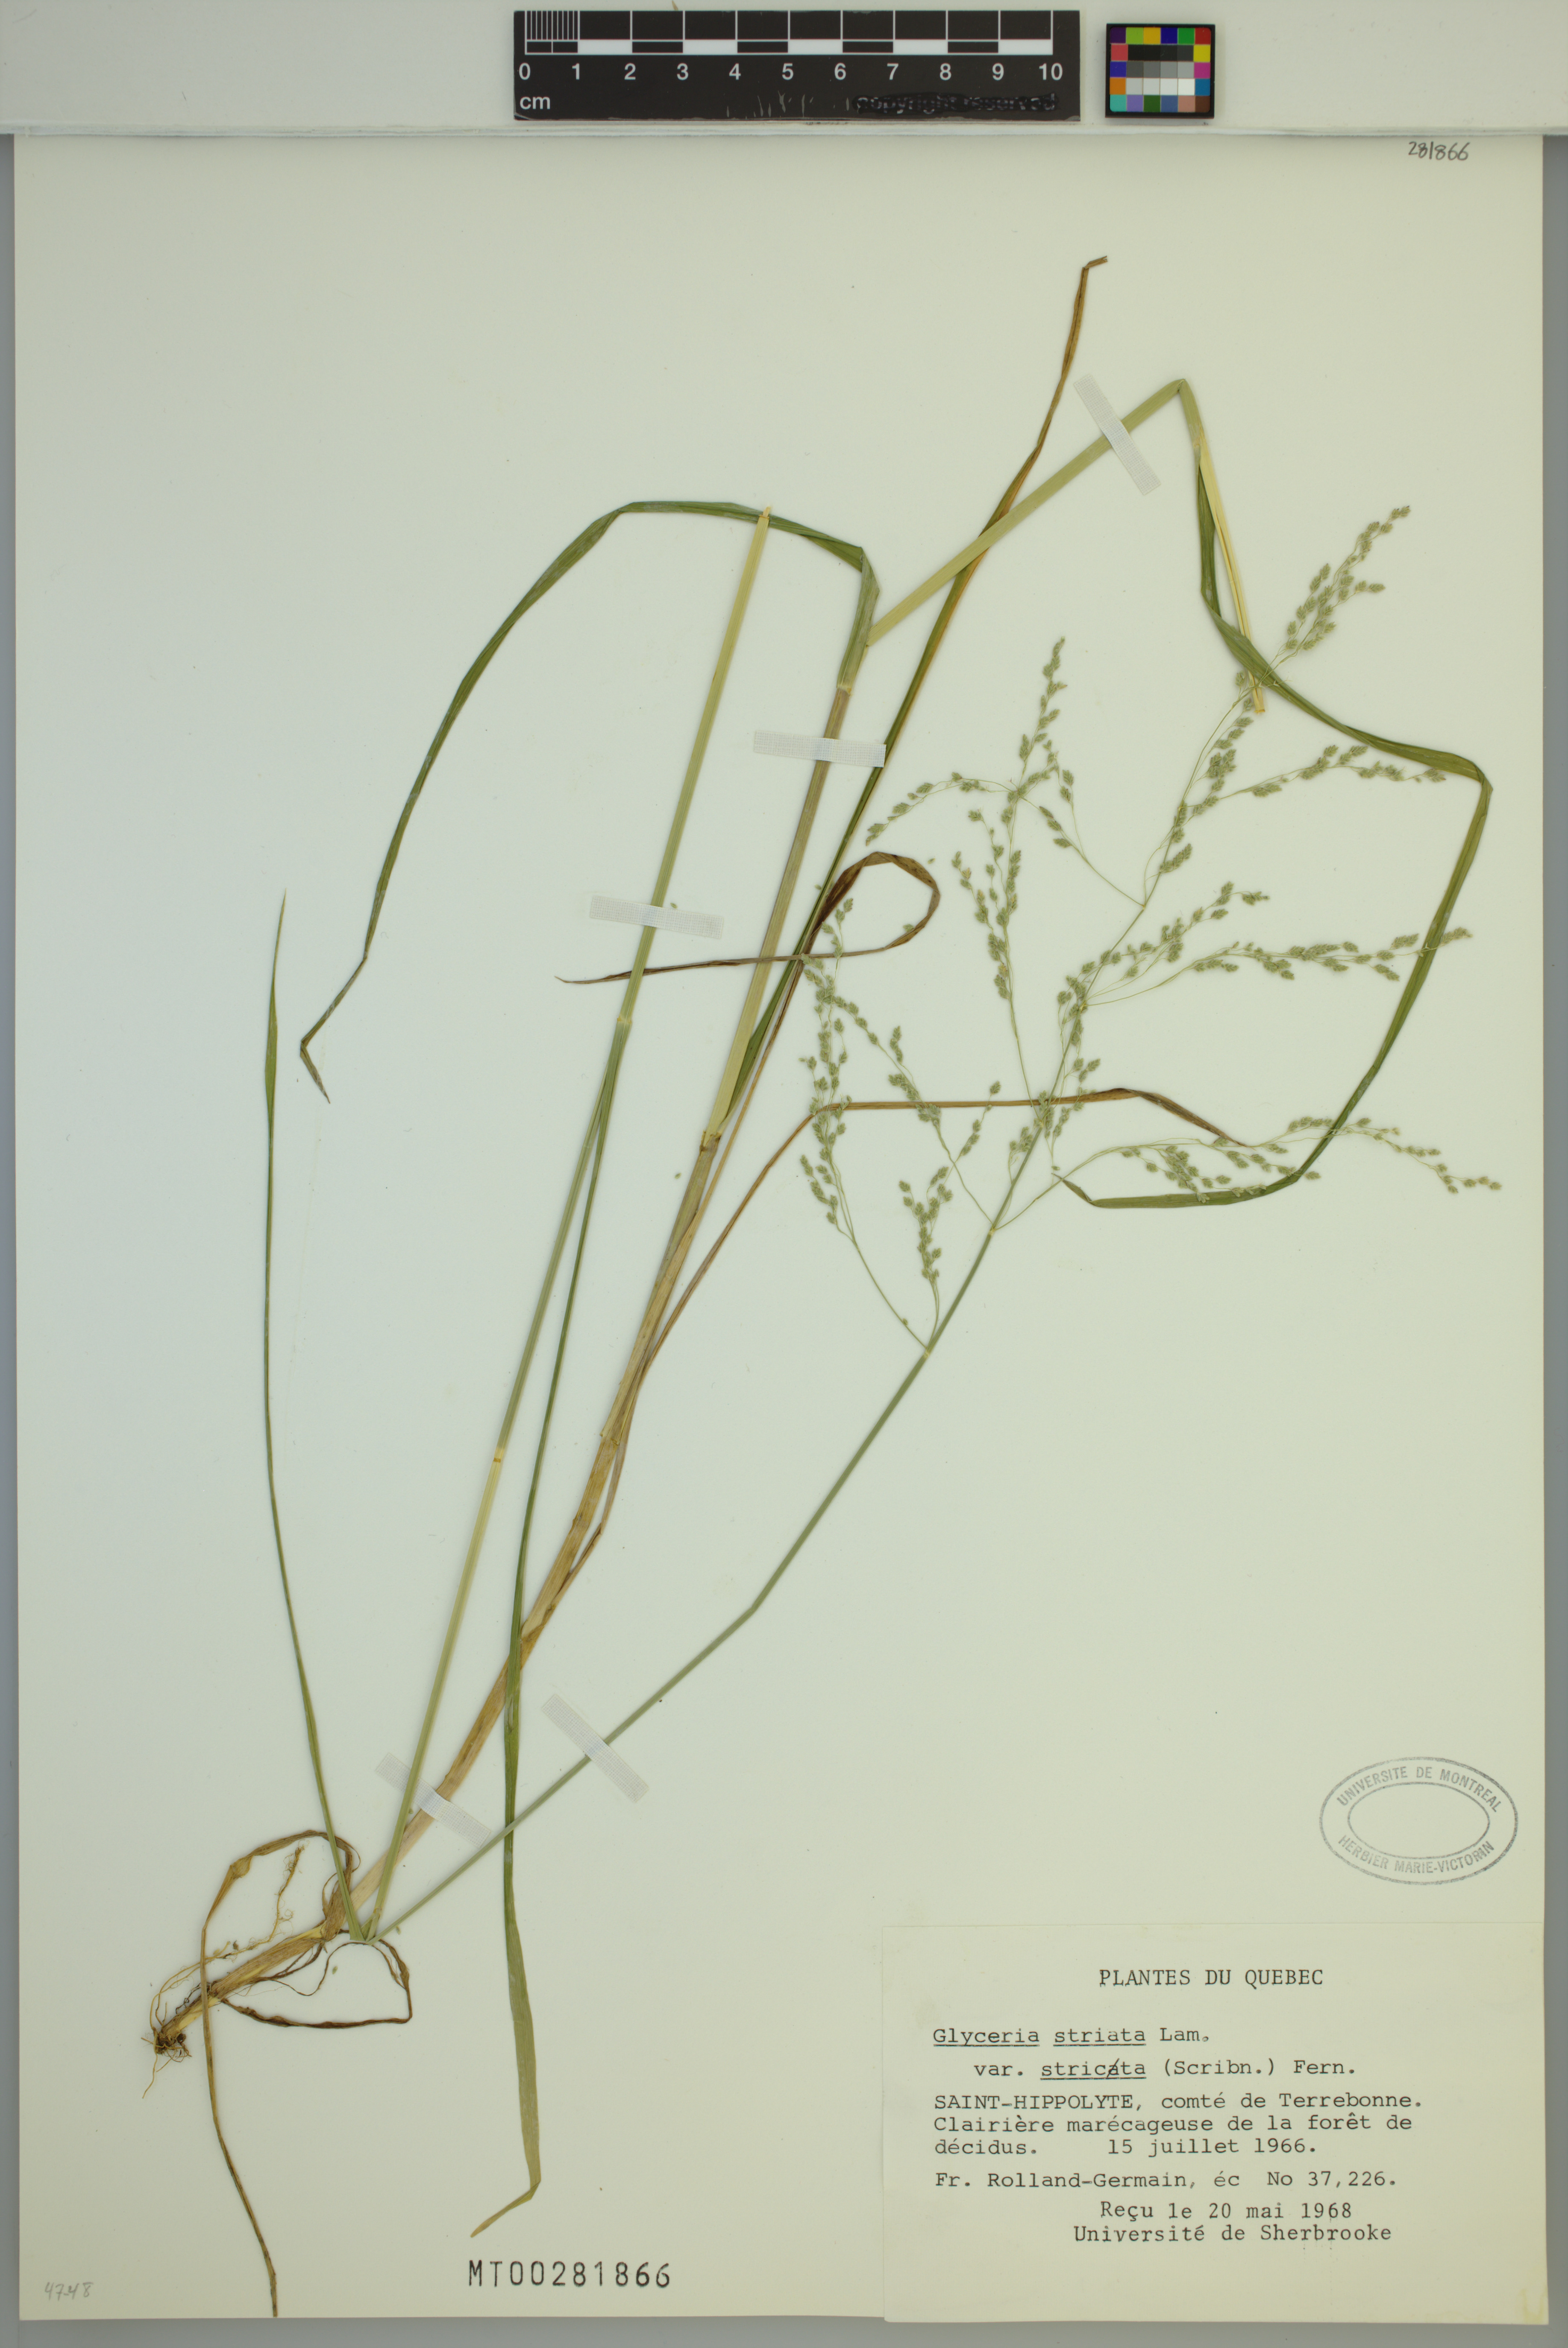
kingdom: Plantae
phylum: Tracheophyta
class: Liliopsida
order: Poales
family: Poaceae
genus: Glyceria
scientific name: Glyceria striata
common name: Fowl manna grass
